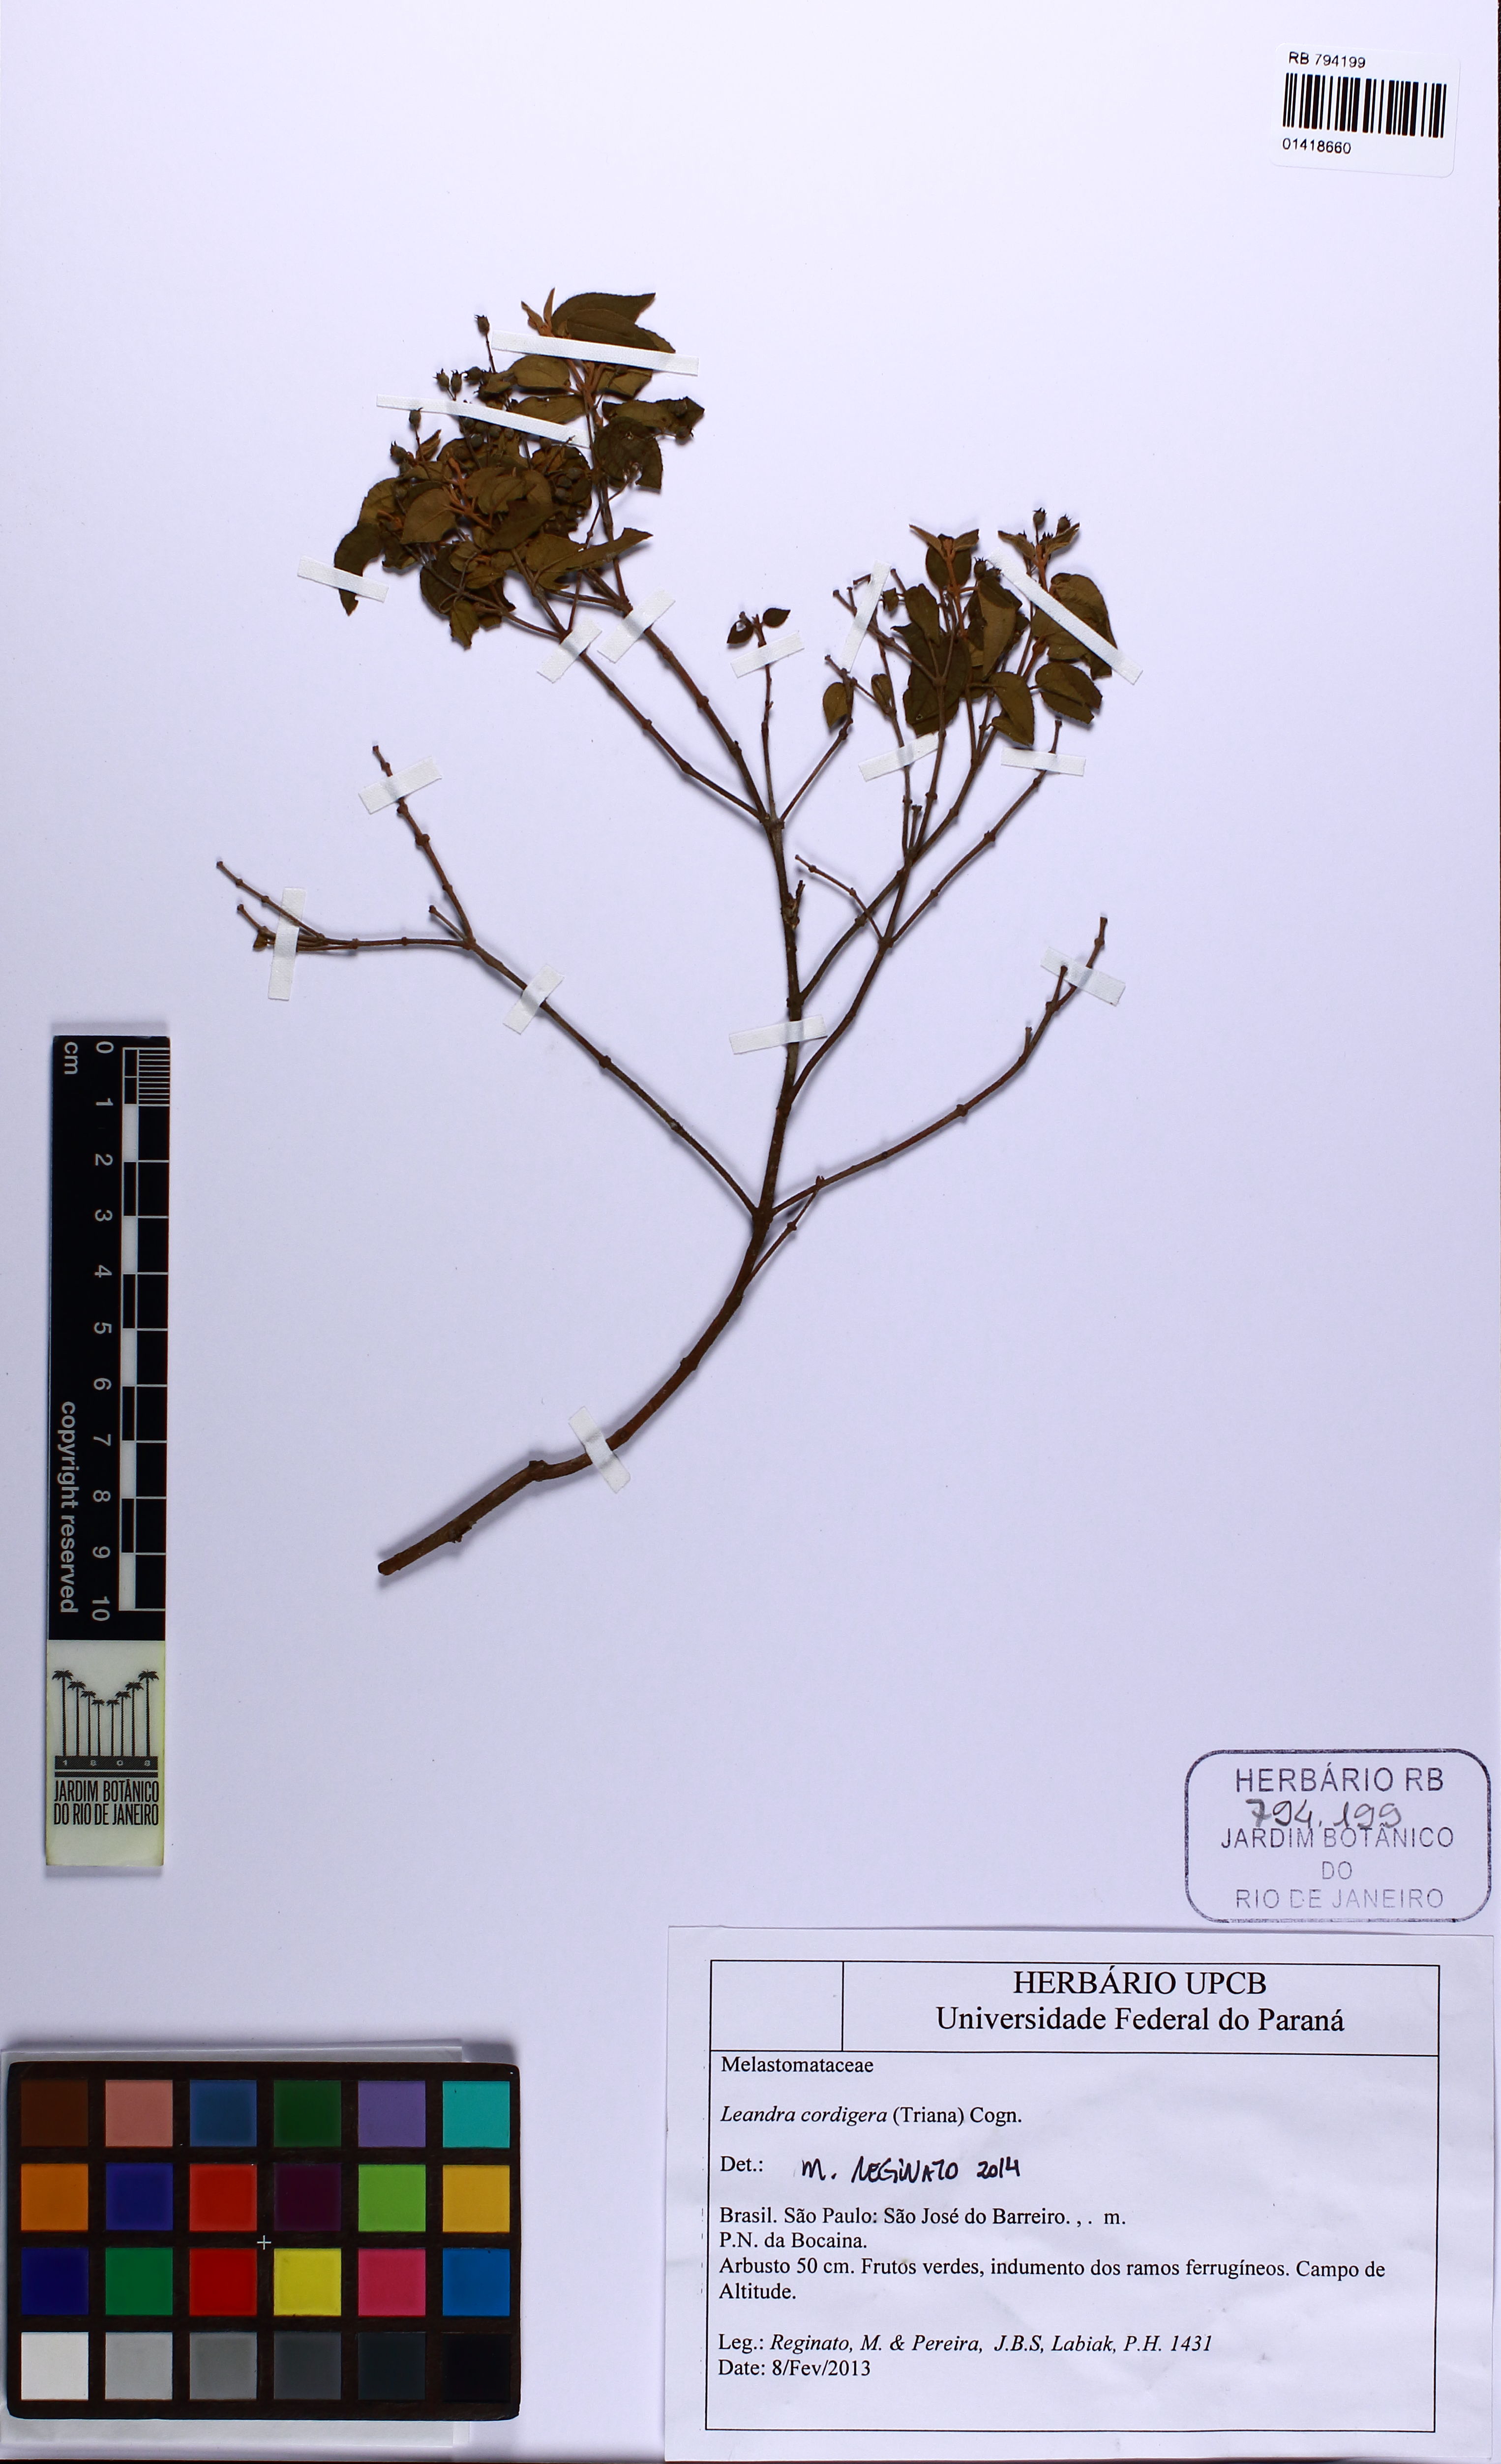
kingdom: Plantae
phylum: Tracheophyta
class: Magnoliopsida
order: Myrtales
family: Melastomataceae
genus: Miconia
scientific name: Miconia cordigera
